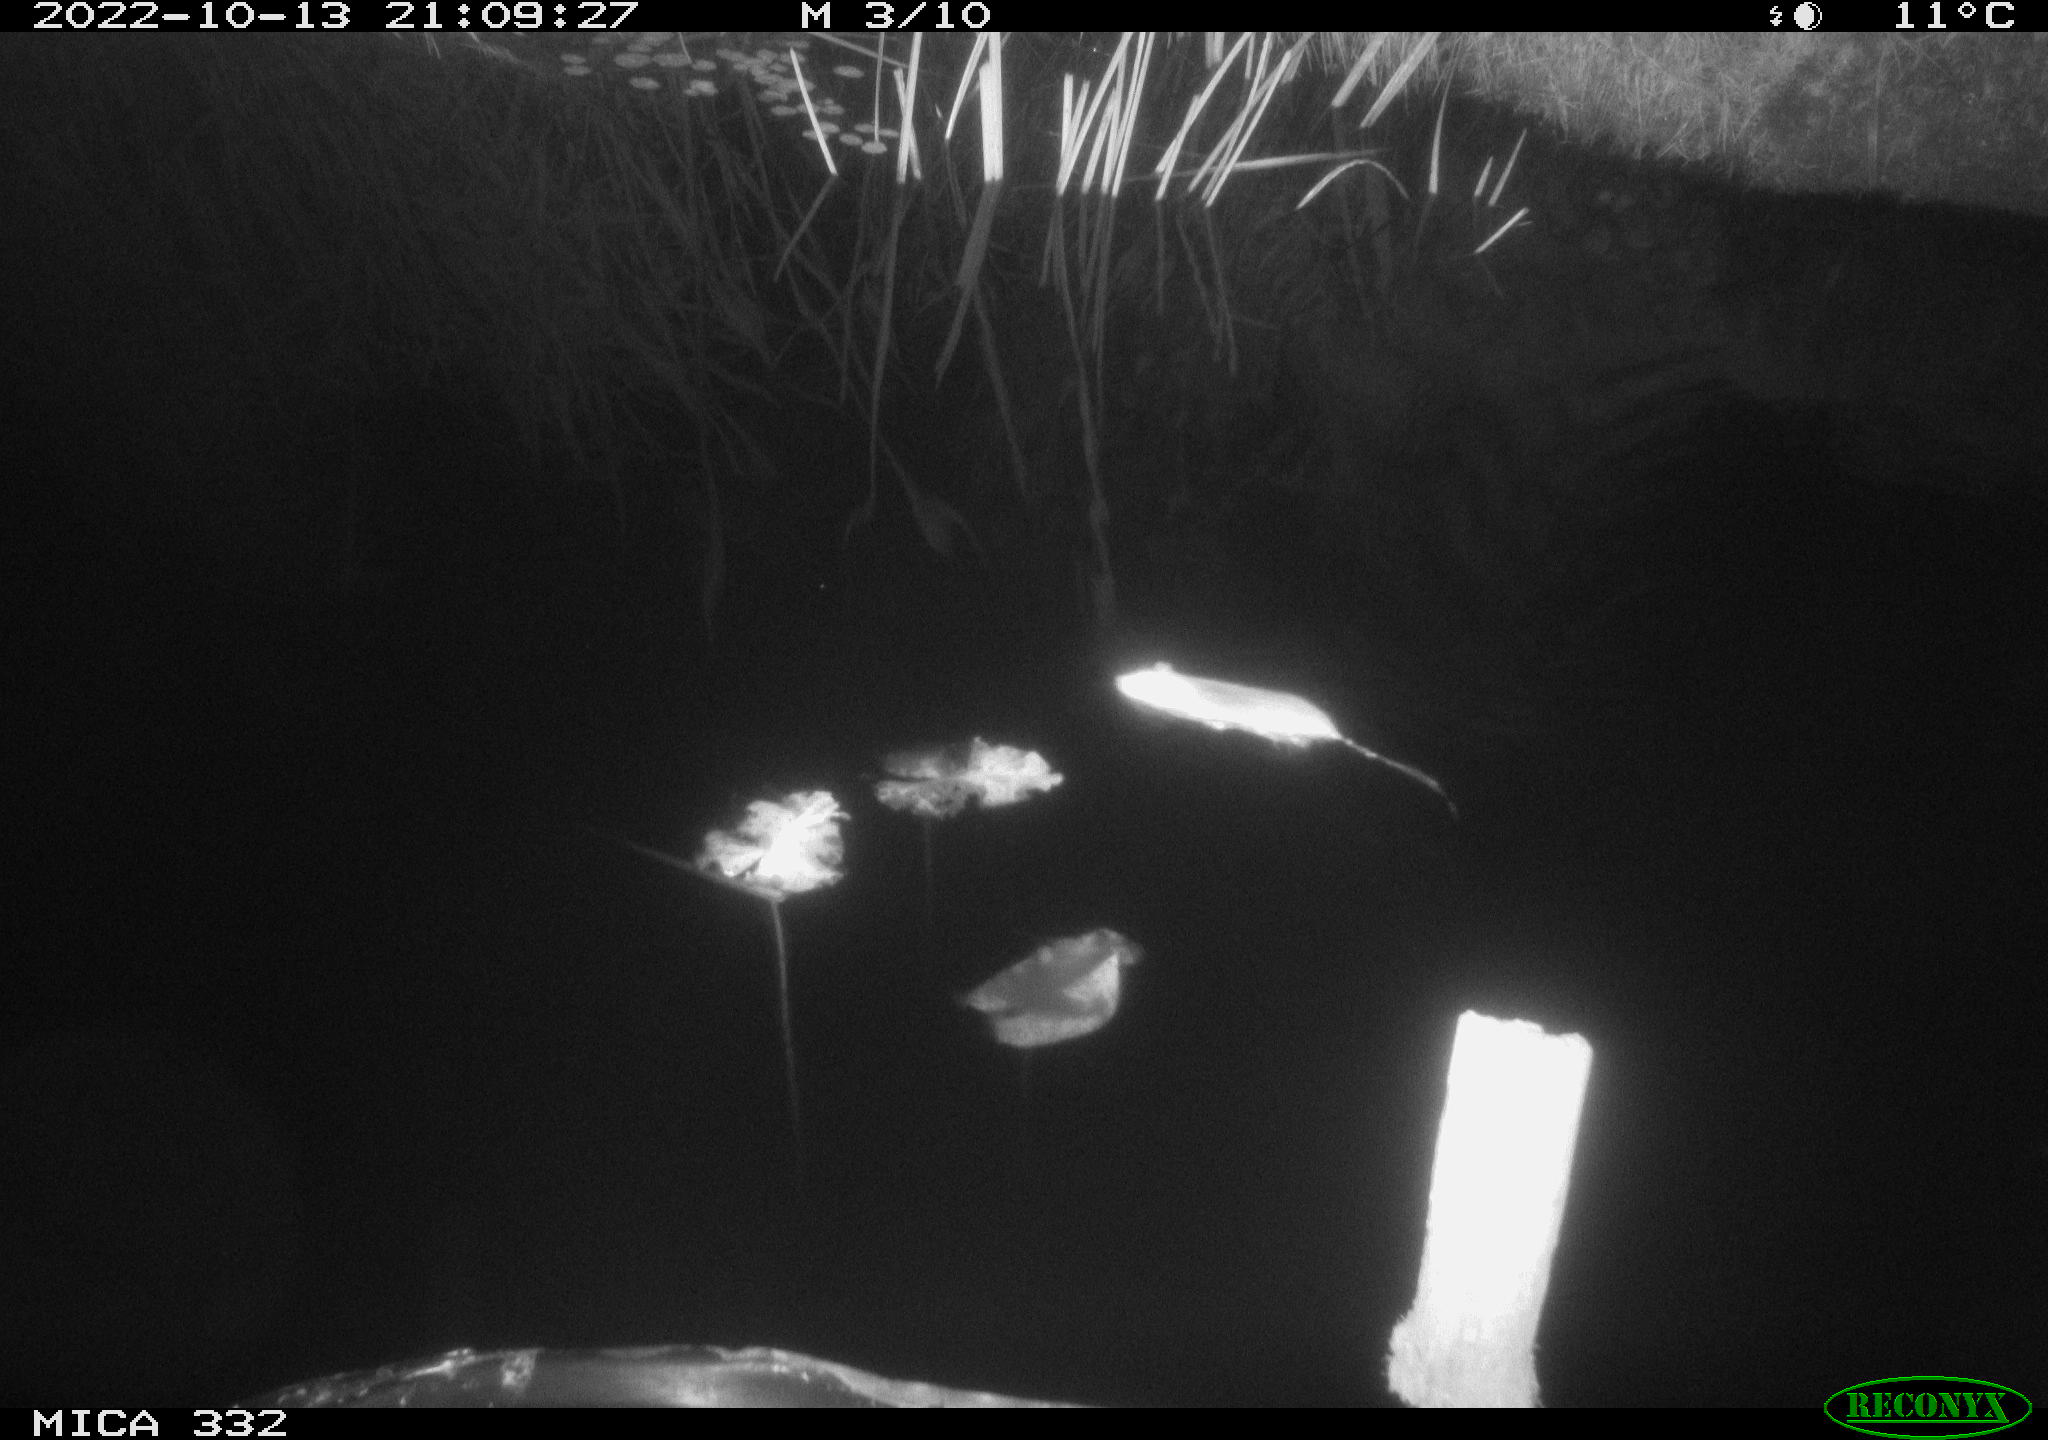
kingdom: Animalia
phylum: Chordata
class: Mammalia
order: Rodentia
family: Muridae
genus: Rattus
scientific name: Rattus norvegicus
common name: Brown rat
